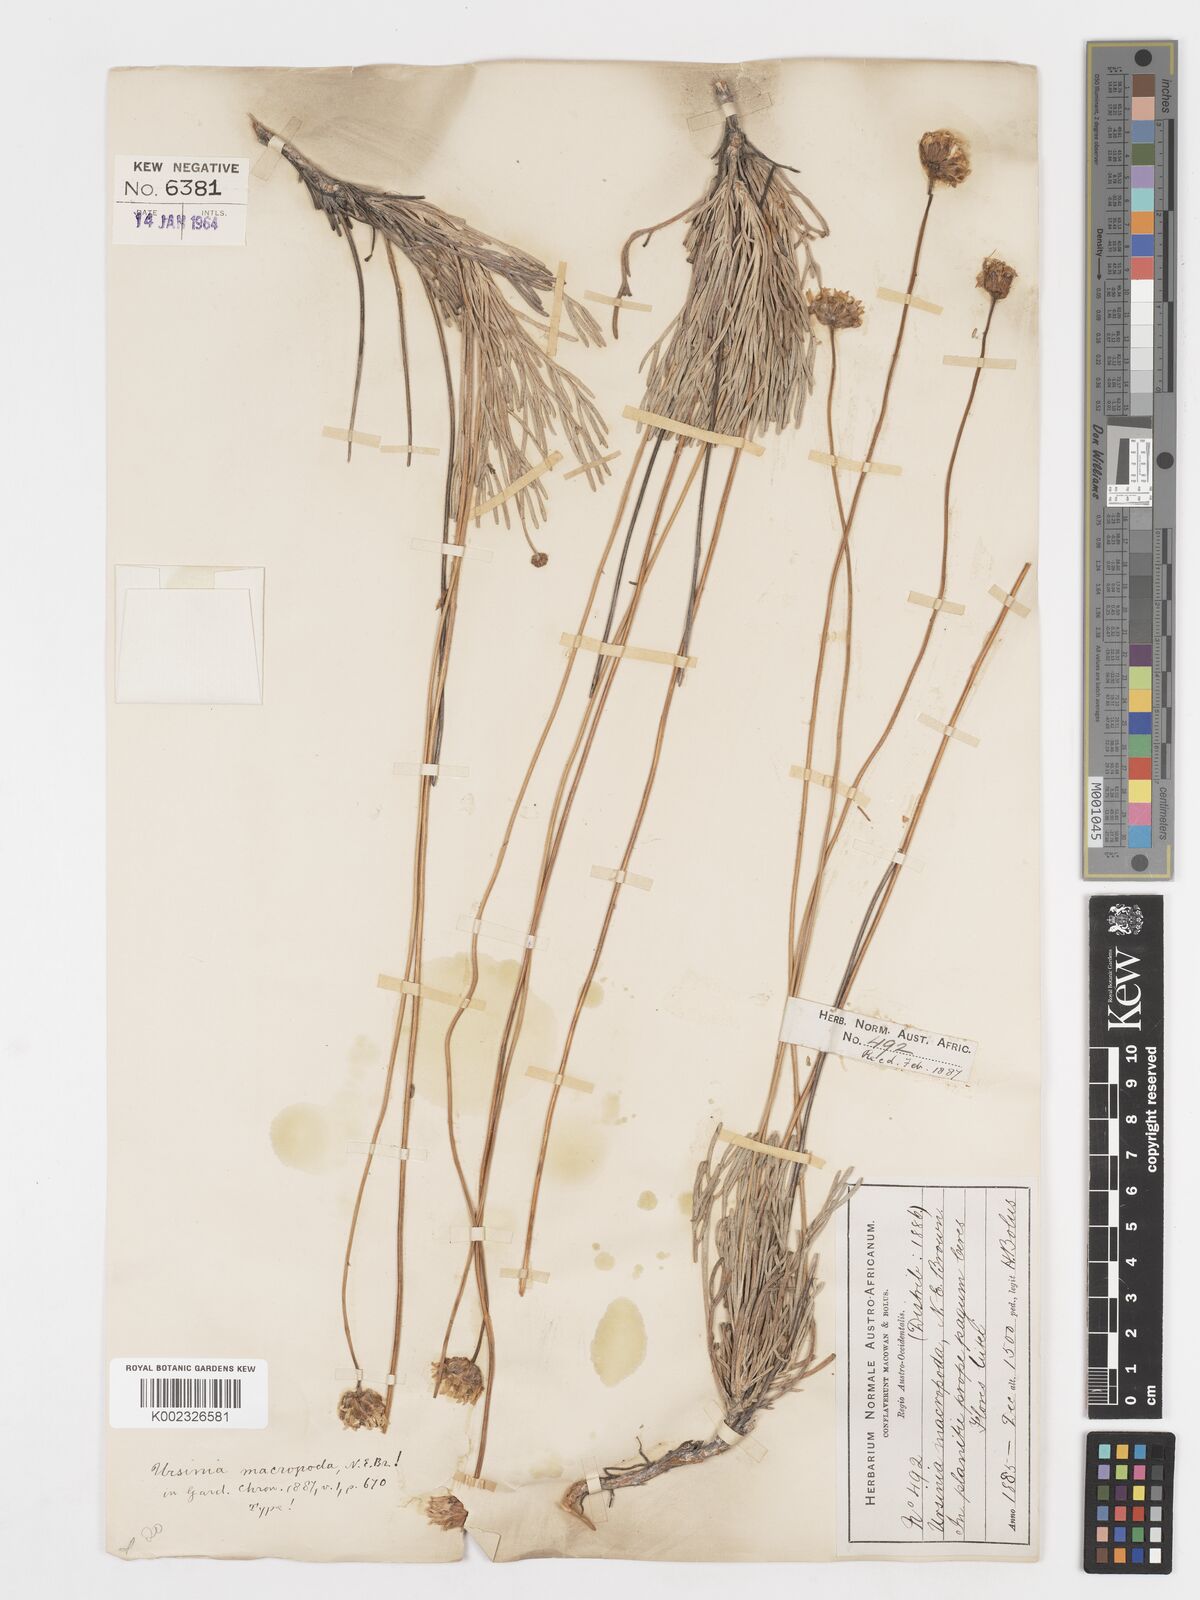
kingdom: Plantae
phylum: Tracheophyta
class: Magnoliopsida
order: Asterales
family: Asteraceae
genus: Ursinia
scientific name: Ursinia sericea
